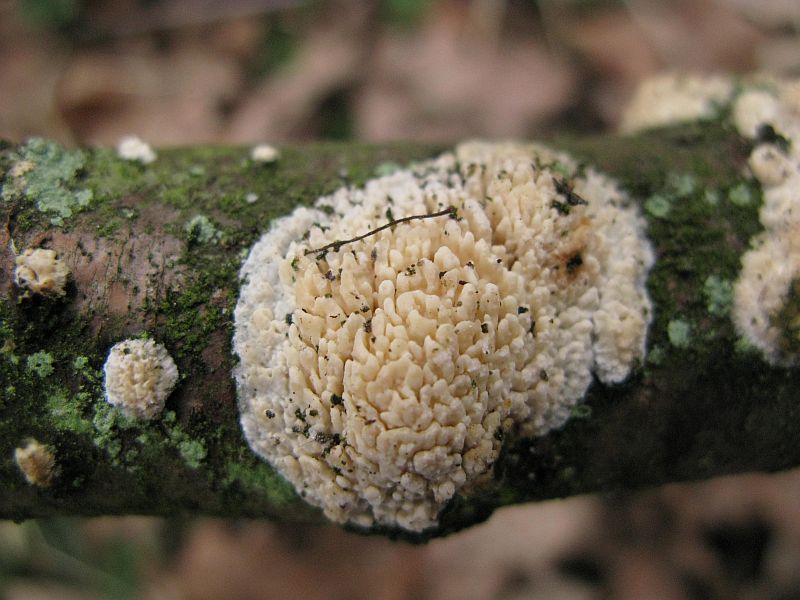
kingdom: Fungi
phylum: Basidiomycota
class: Agaricomycetes
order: Hymenochaetales
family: Schizoporaceae
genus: Xylodon
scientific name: Xylodon radula
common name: grovtandet kalkskind
